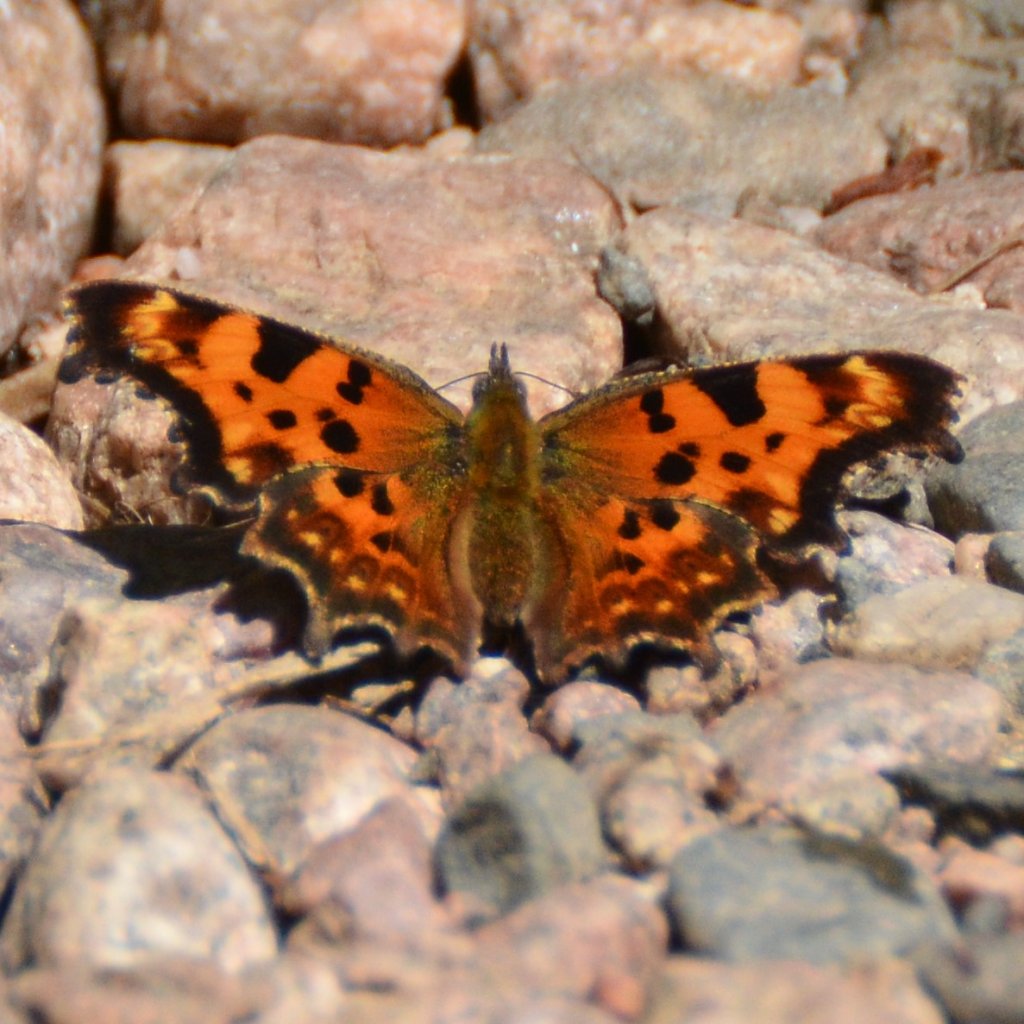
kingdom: Animalia
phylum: Arthropoda
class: Insecta
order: Lepidoptera
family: Nymphalidae
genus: Polygonia
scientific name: Polygonia faunus
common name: Green Comma
